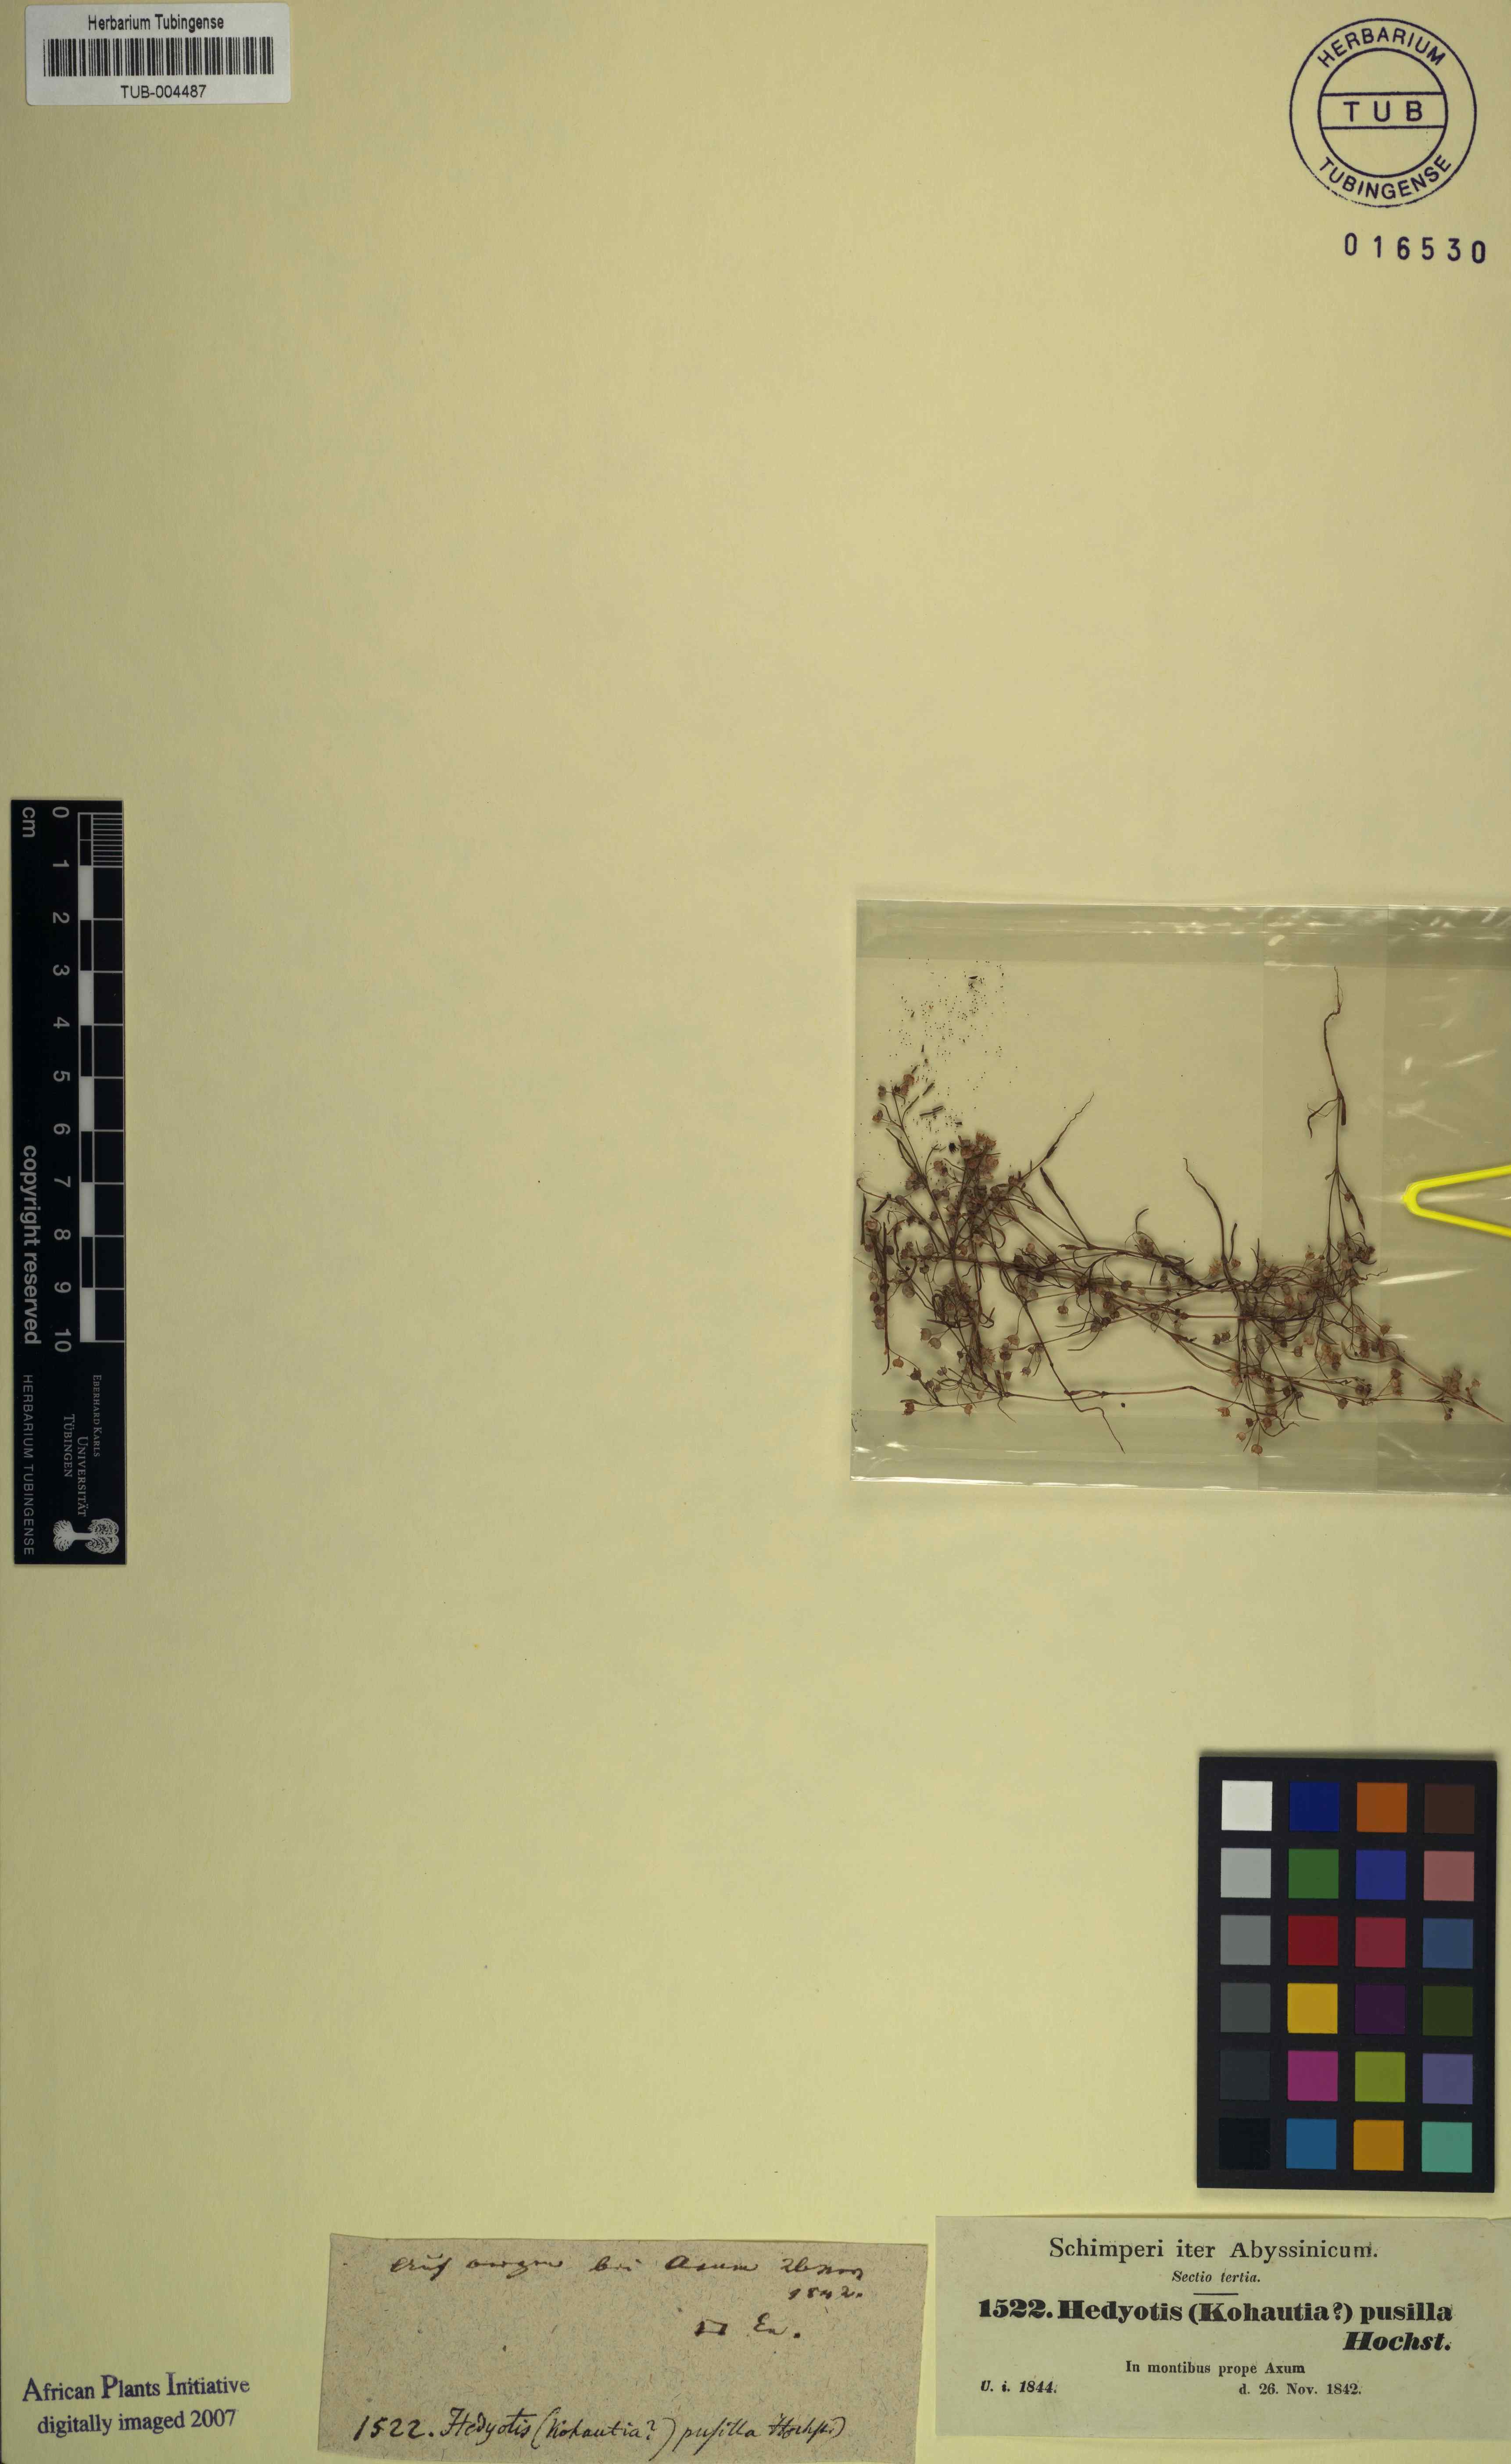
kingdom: Plantae
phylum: Tracheophyta
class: Magnoliopsida
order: Gentianales
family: Rubiaceae
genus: Oldenlandia
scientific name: Oldenlandia corymbosa
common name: Flat-top mille graines
